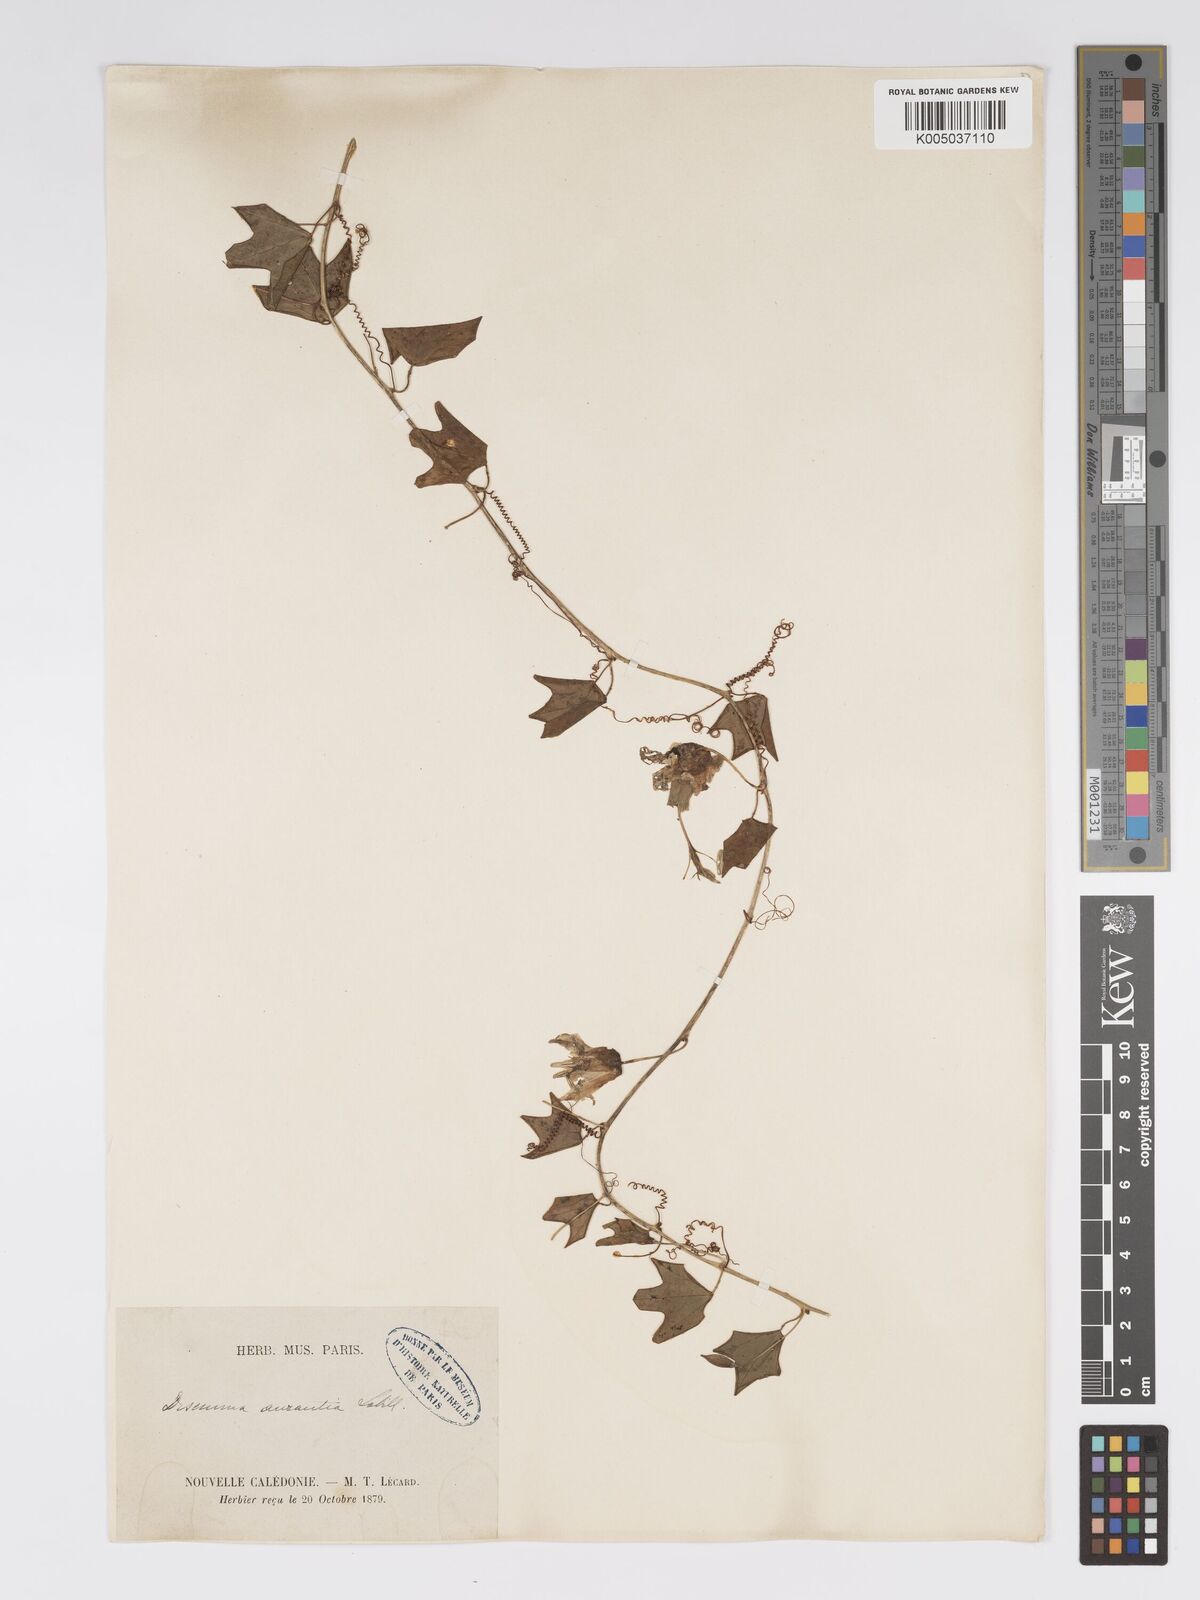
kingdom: Plantae
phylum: Tracheophyta
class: Magnoliopsida
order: Malpighiales
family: Passifloraceae
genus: Passiflora
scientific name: Passiflora aurantia
